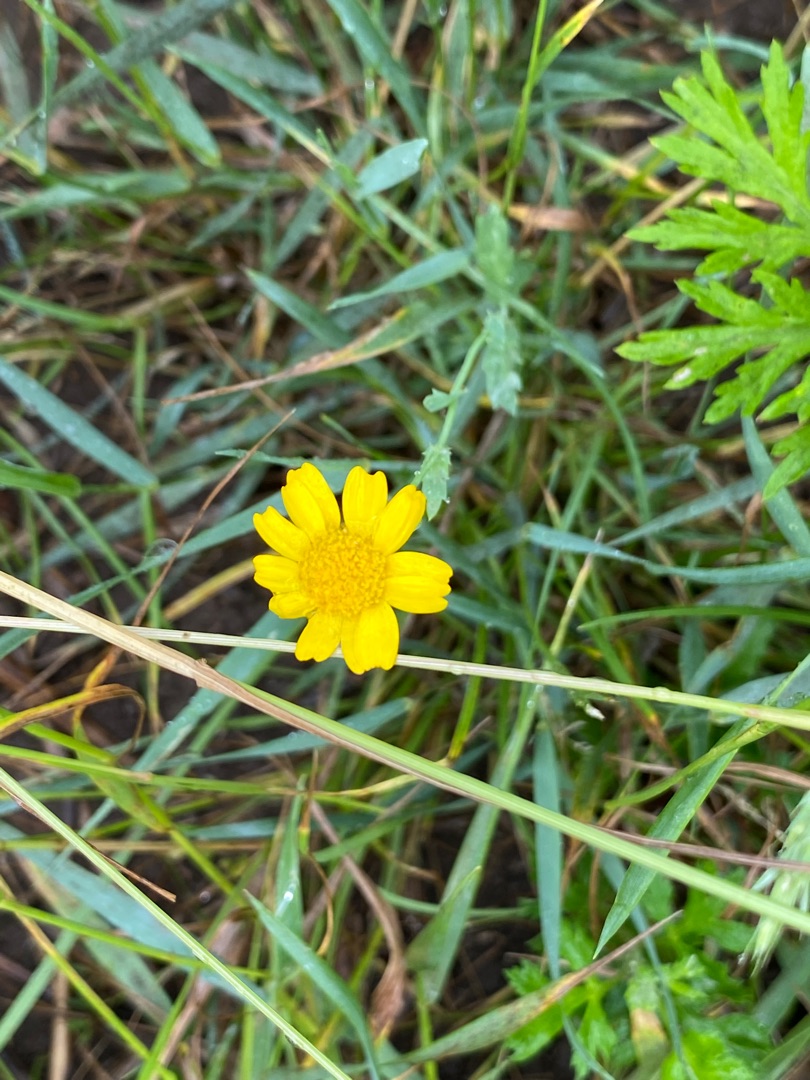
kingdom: Plantae
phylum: Tracheophyta
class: Magnoliopsida
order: Asterales
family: Asteraceae
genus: Glebionis
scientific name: Glebionis segetum
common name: Gul okseøje
